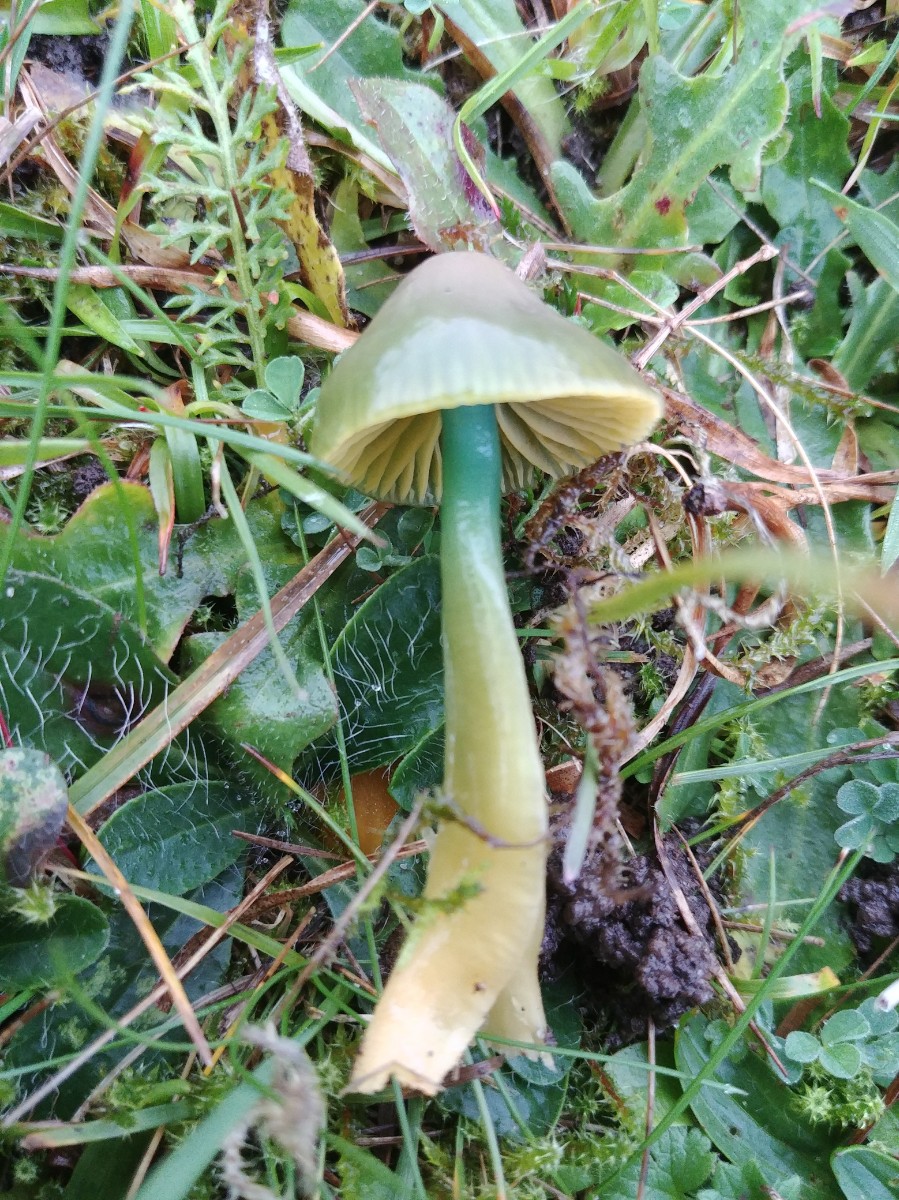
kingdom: Fungi
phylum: Basidiomycota
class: Agaricomycetes
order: Agaricales
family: Hygrophoraceae
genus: Gliophorus
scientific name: Gliophorus psittacinus
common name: papegøje-vokshat
